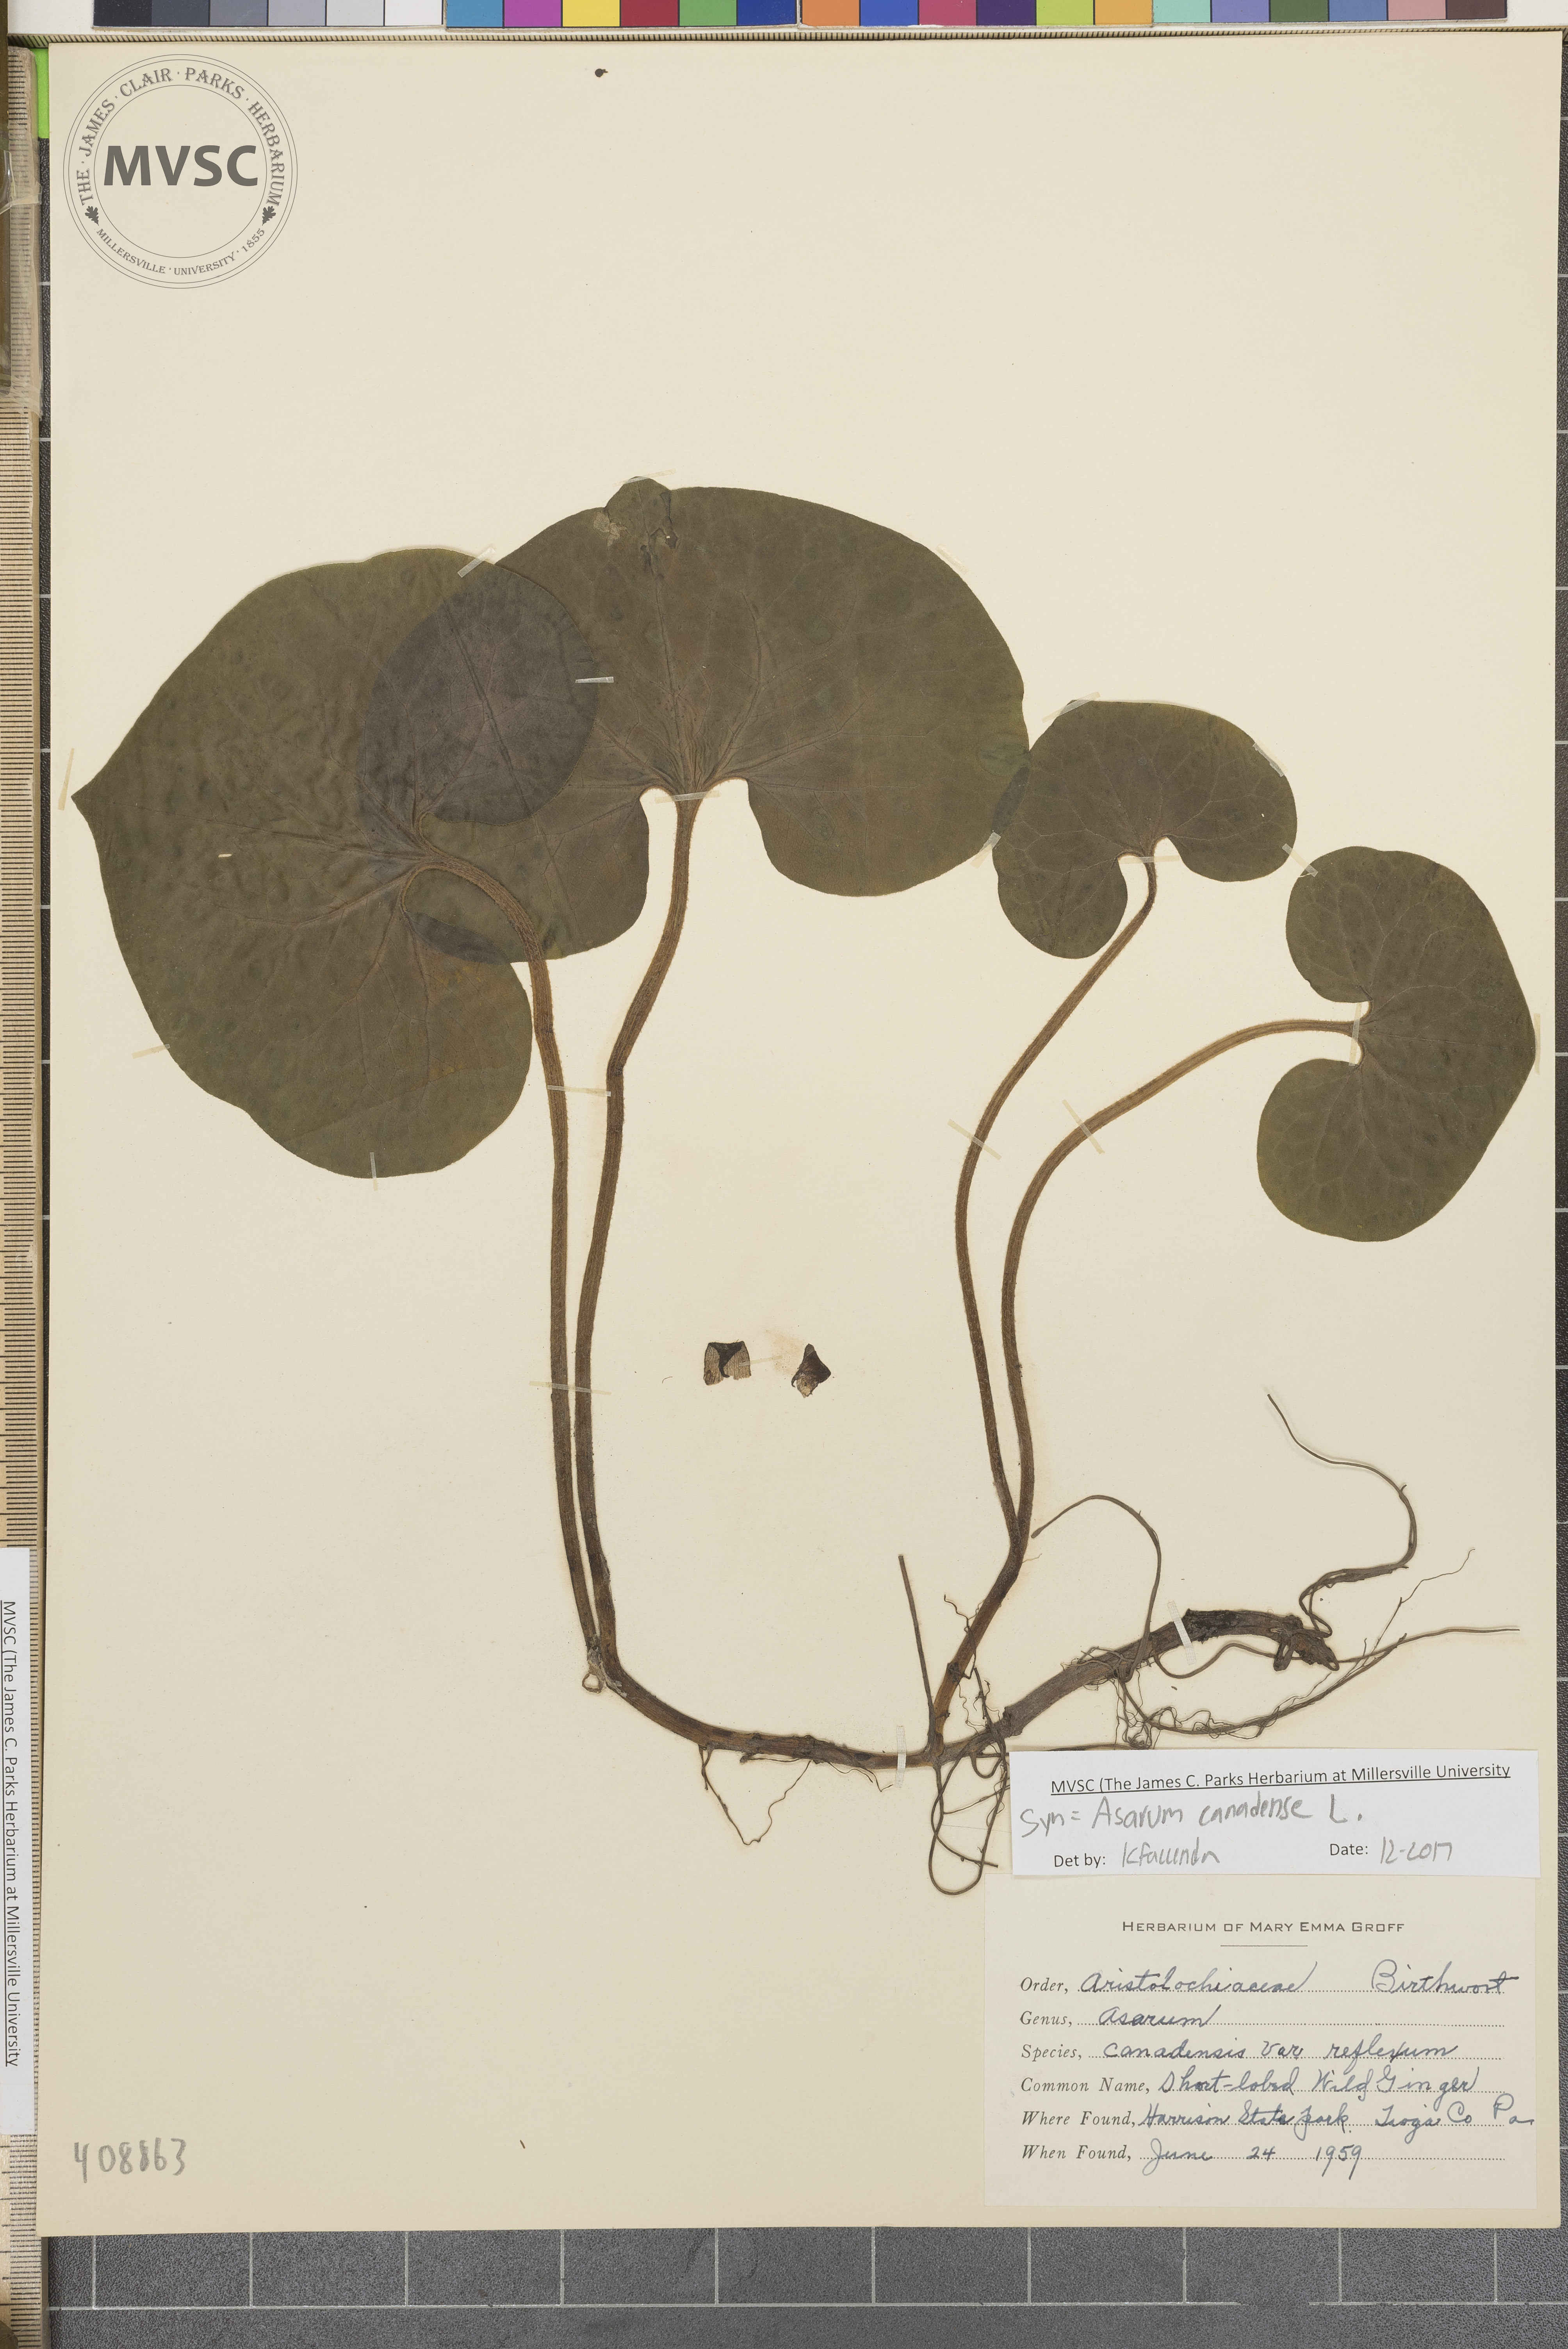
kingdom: Plantae
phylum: Tracheophyta
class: Magnoliopsida
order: Piperales
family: Aristolochiaceae
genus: Asarum
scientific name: Asarum canadense
